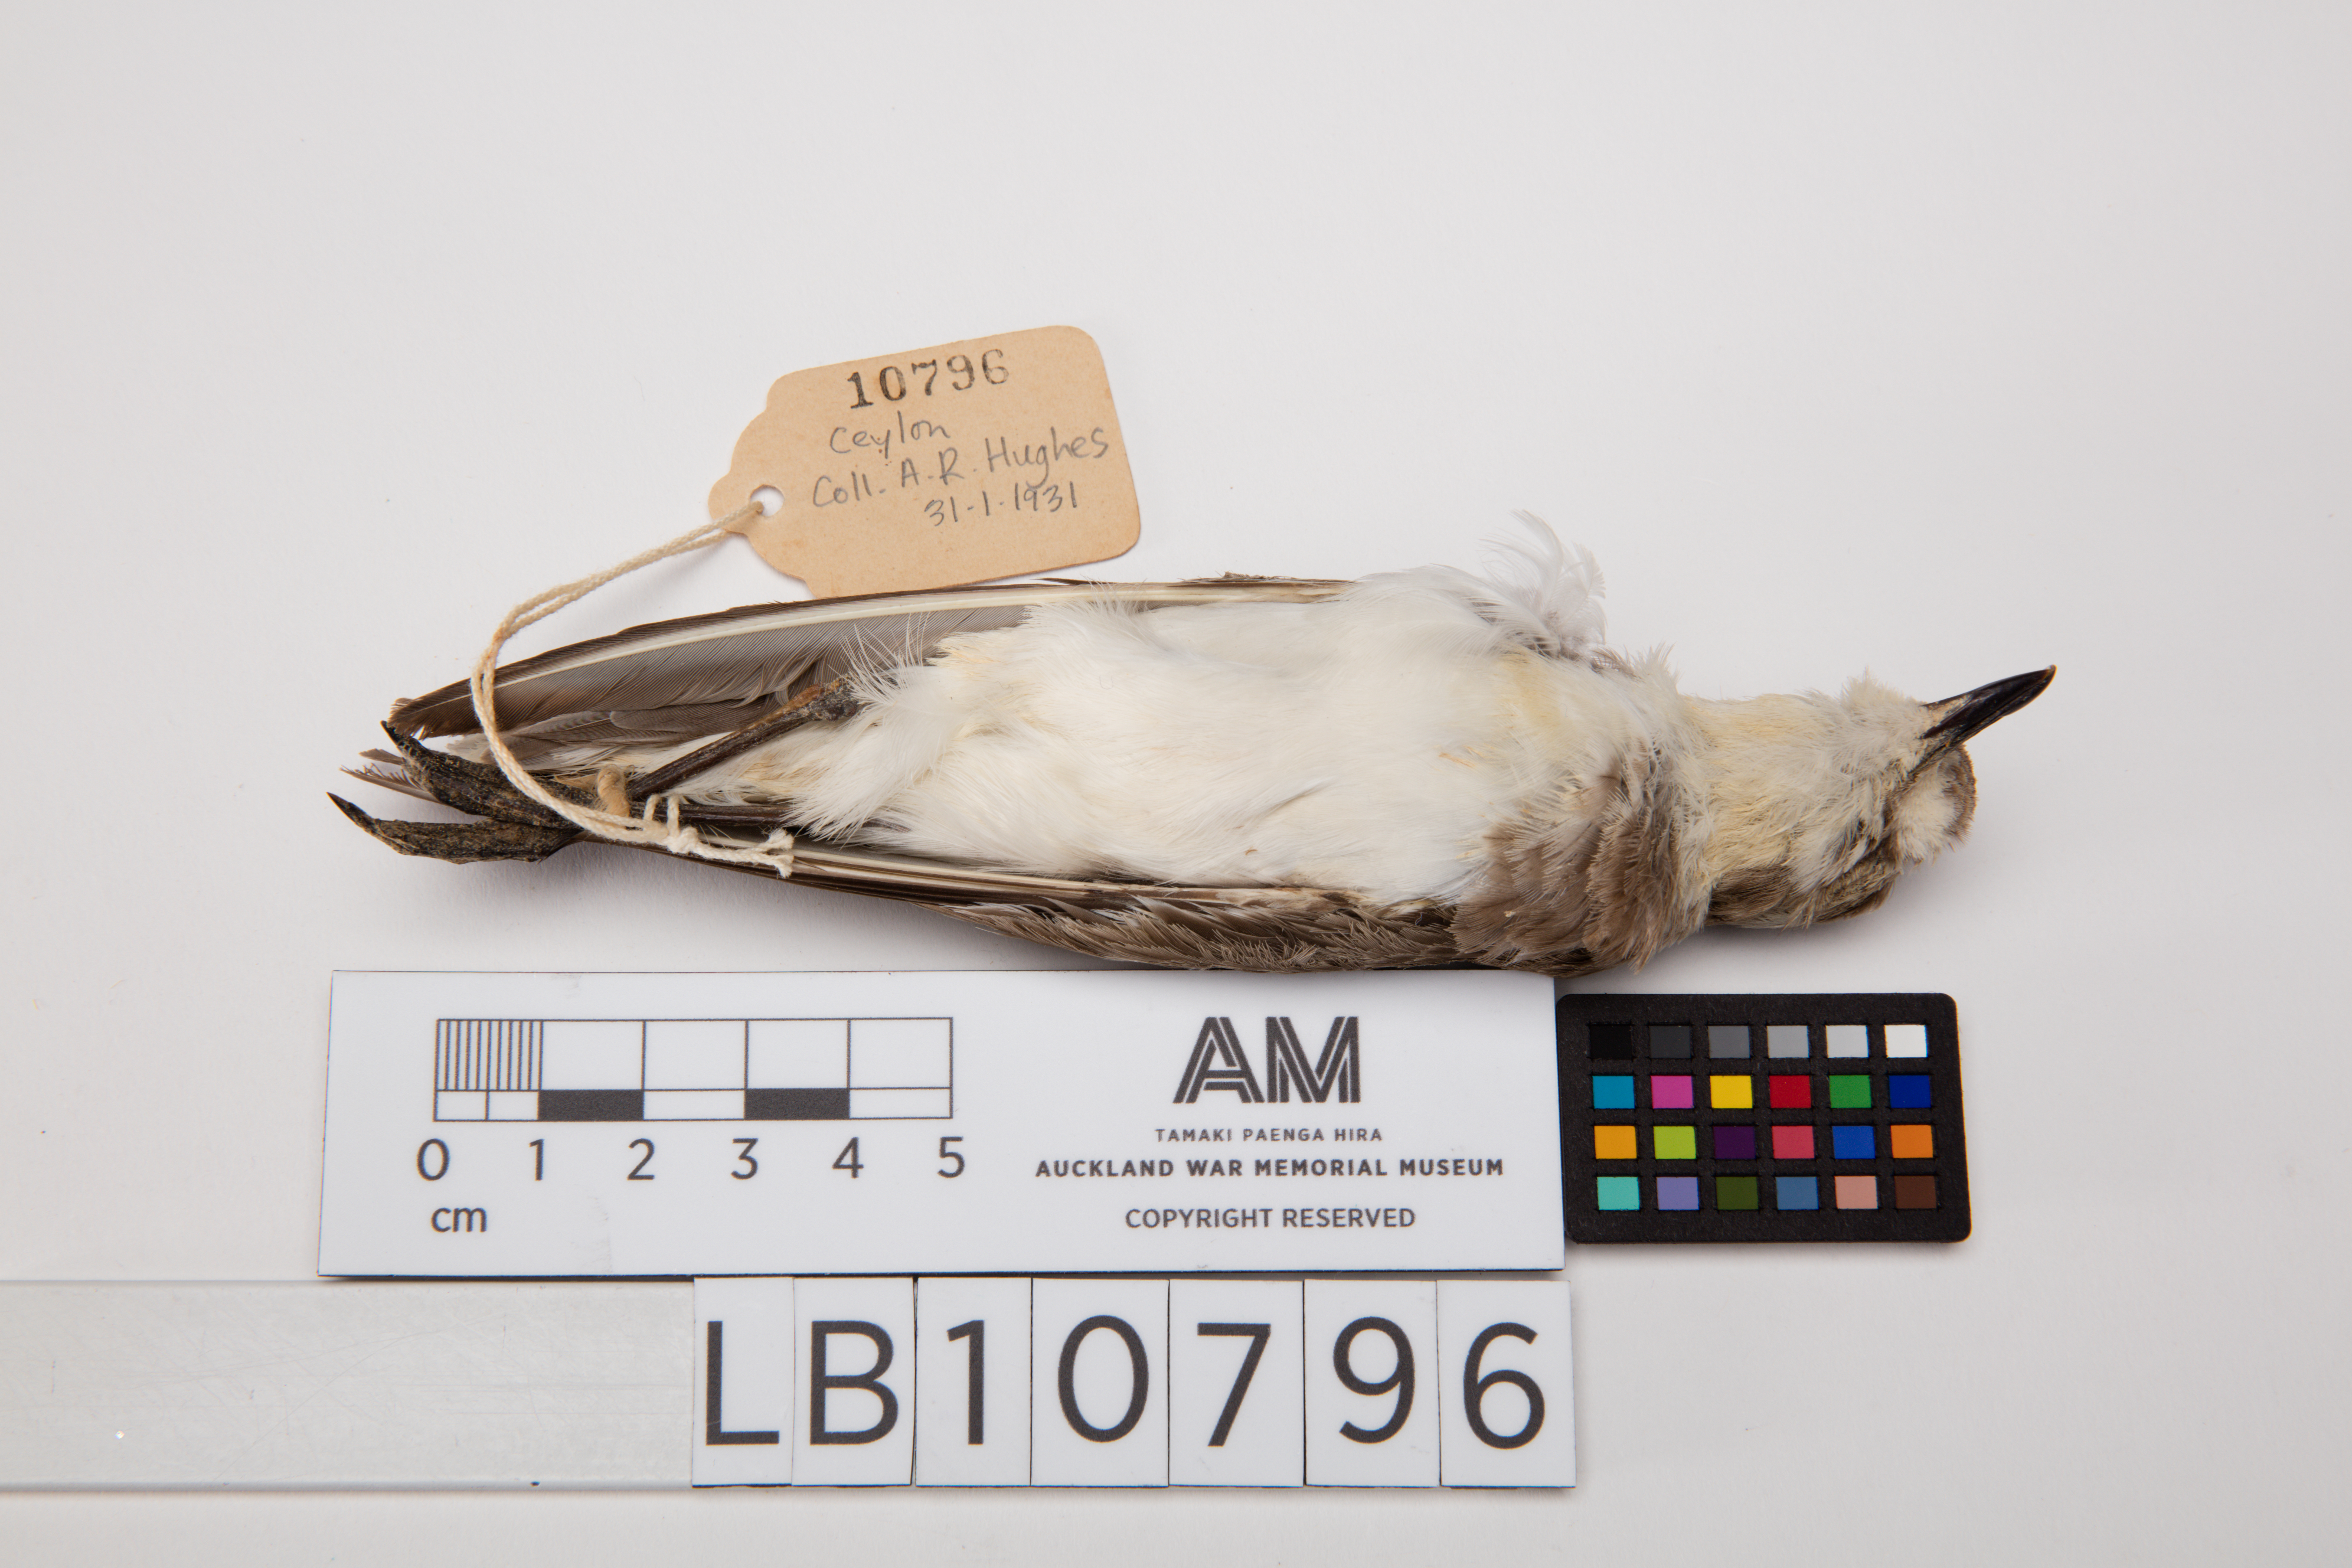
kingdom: Animalia
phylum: Chordata
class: Aves
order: Charadriiformes
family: Charadriidae
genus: Charadrius
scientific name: Charadrius mongolus
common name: Lesser sand-plover
